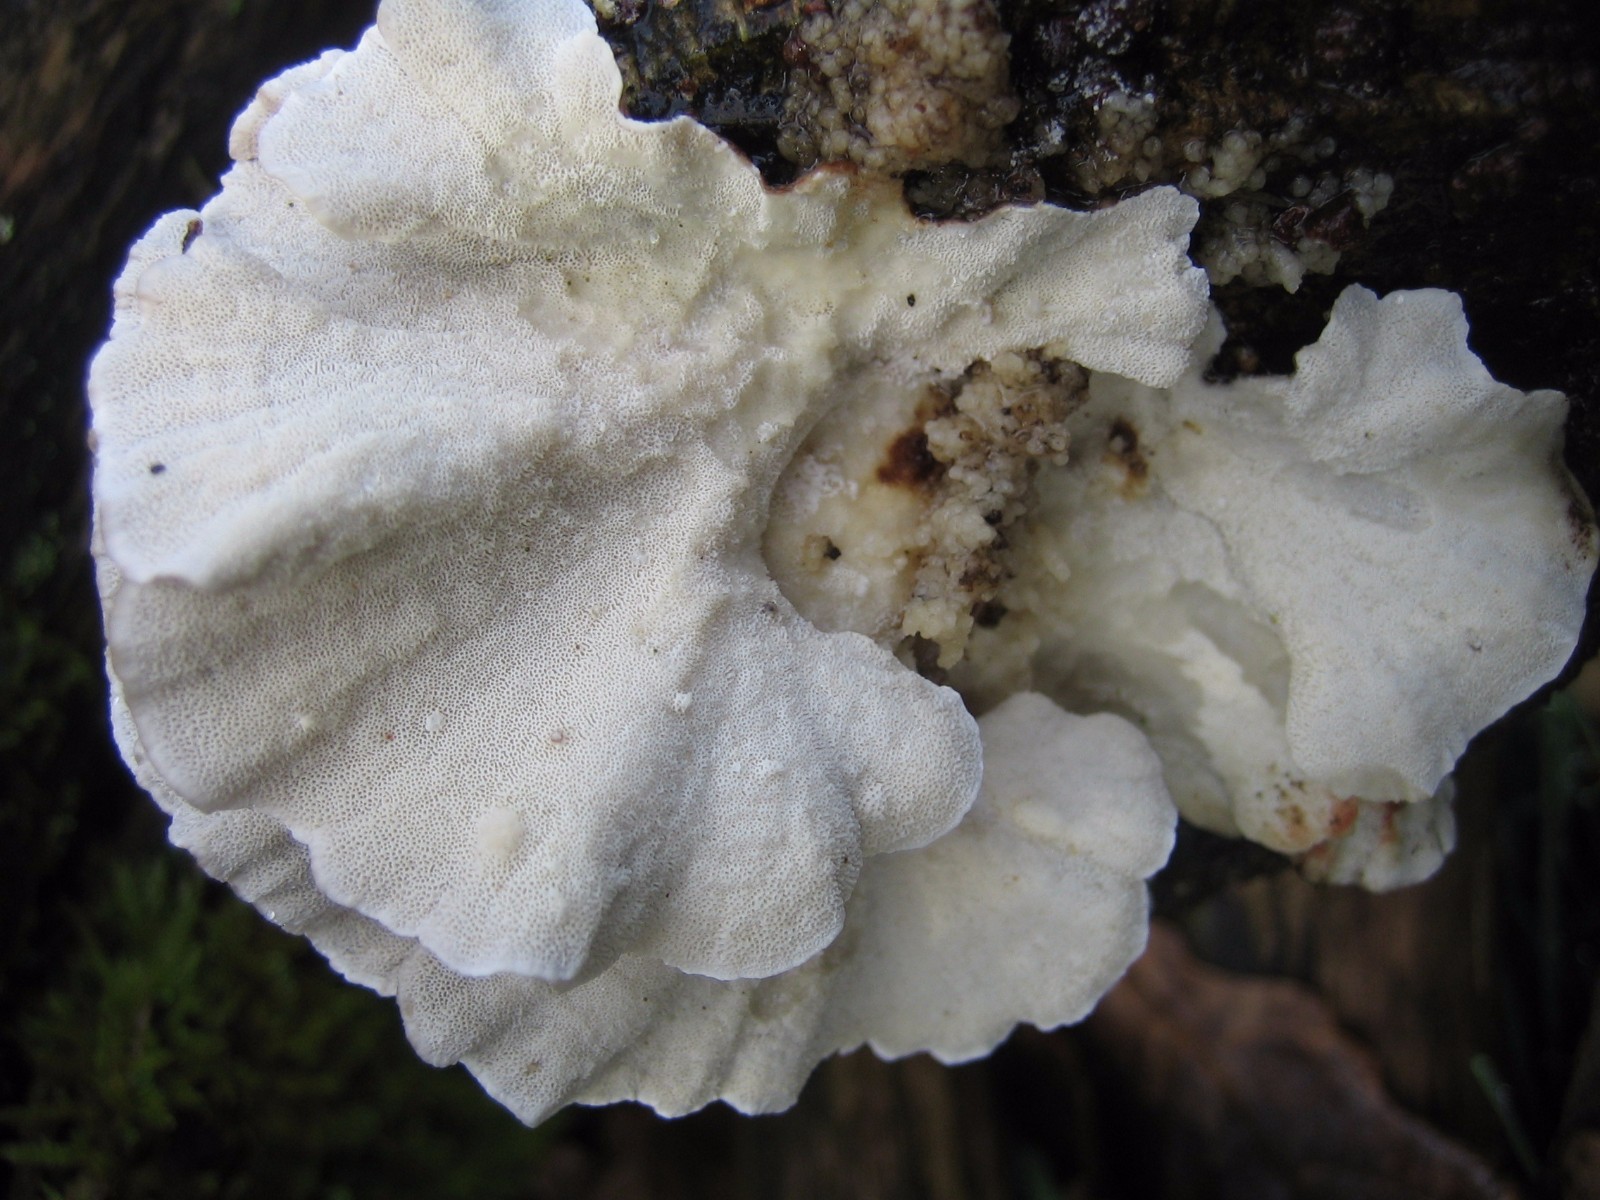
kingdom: Fungi
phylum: Basidiomycota
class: Agaricomycetes
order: Polyporales
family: Polyporaceae
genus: Trametes
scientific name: Trametes versicolor
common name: broget læderporesvamp
